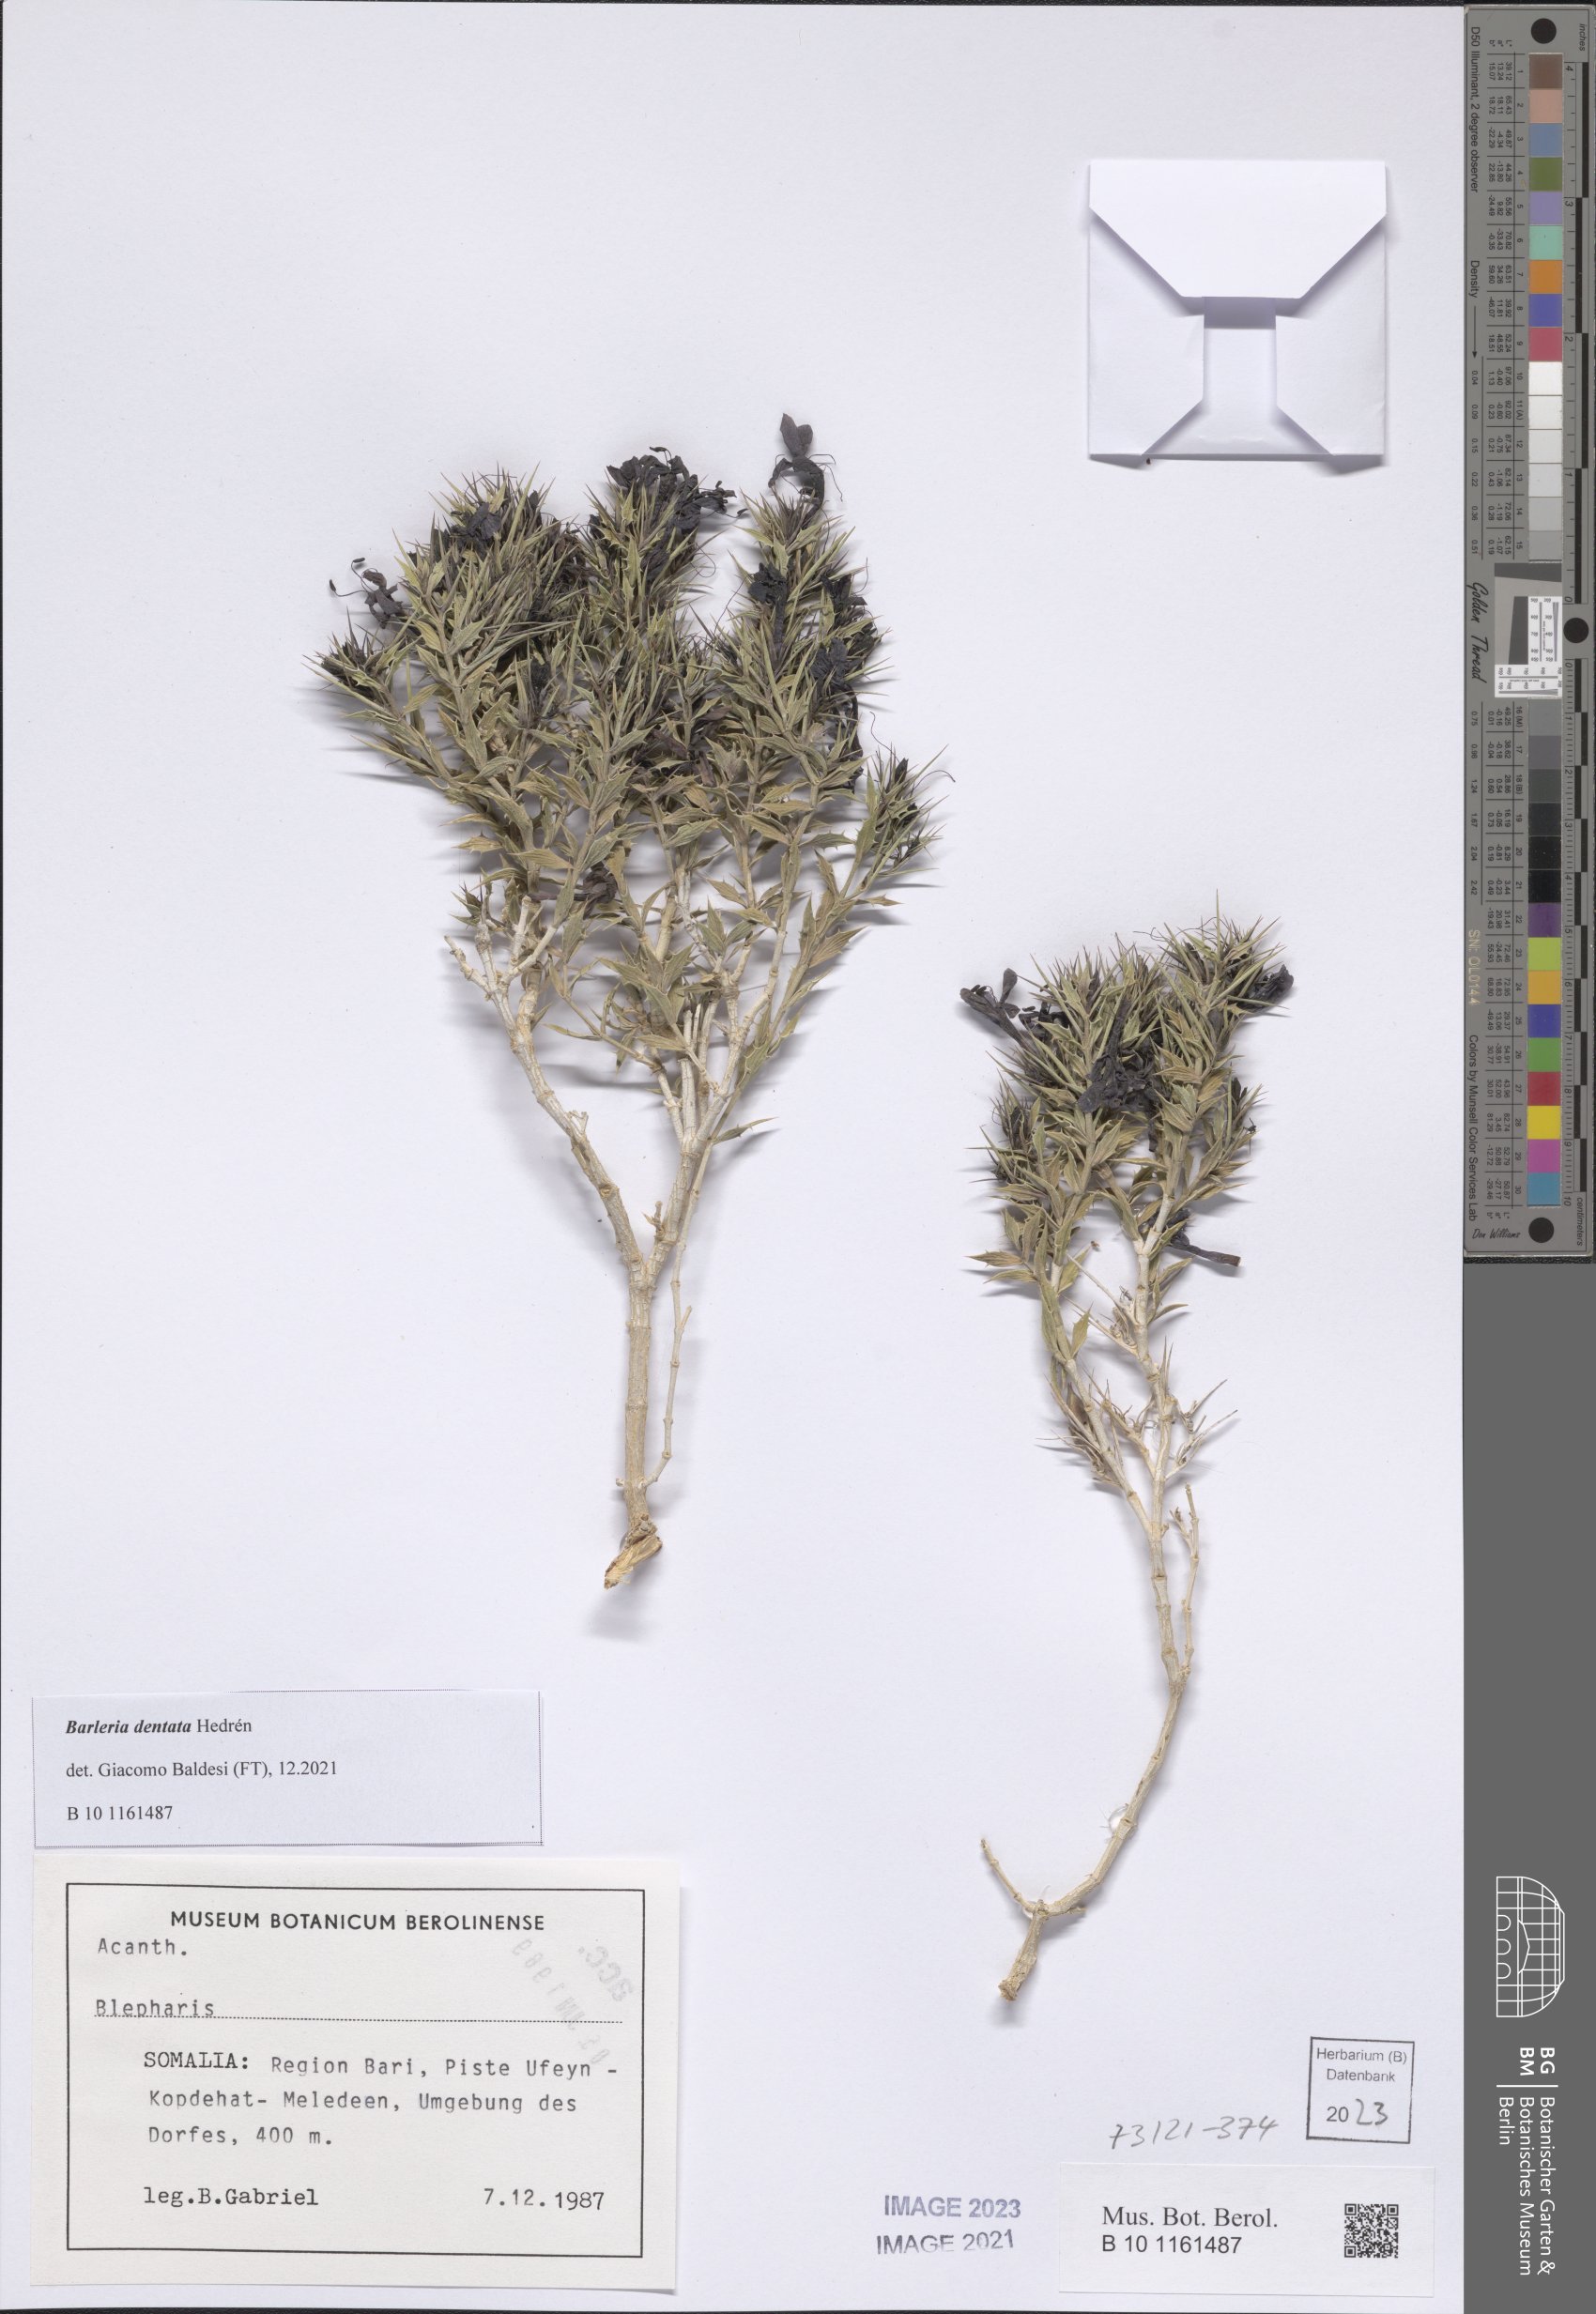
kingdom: Plantae
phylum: Tracheophyta
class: Magnoliopsida
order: Lamiales
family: Acanthaceae
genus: Barleria
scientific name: Barleria dentata
